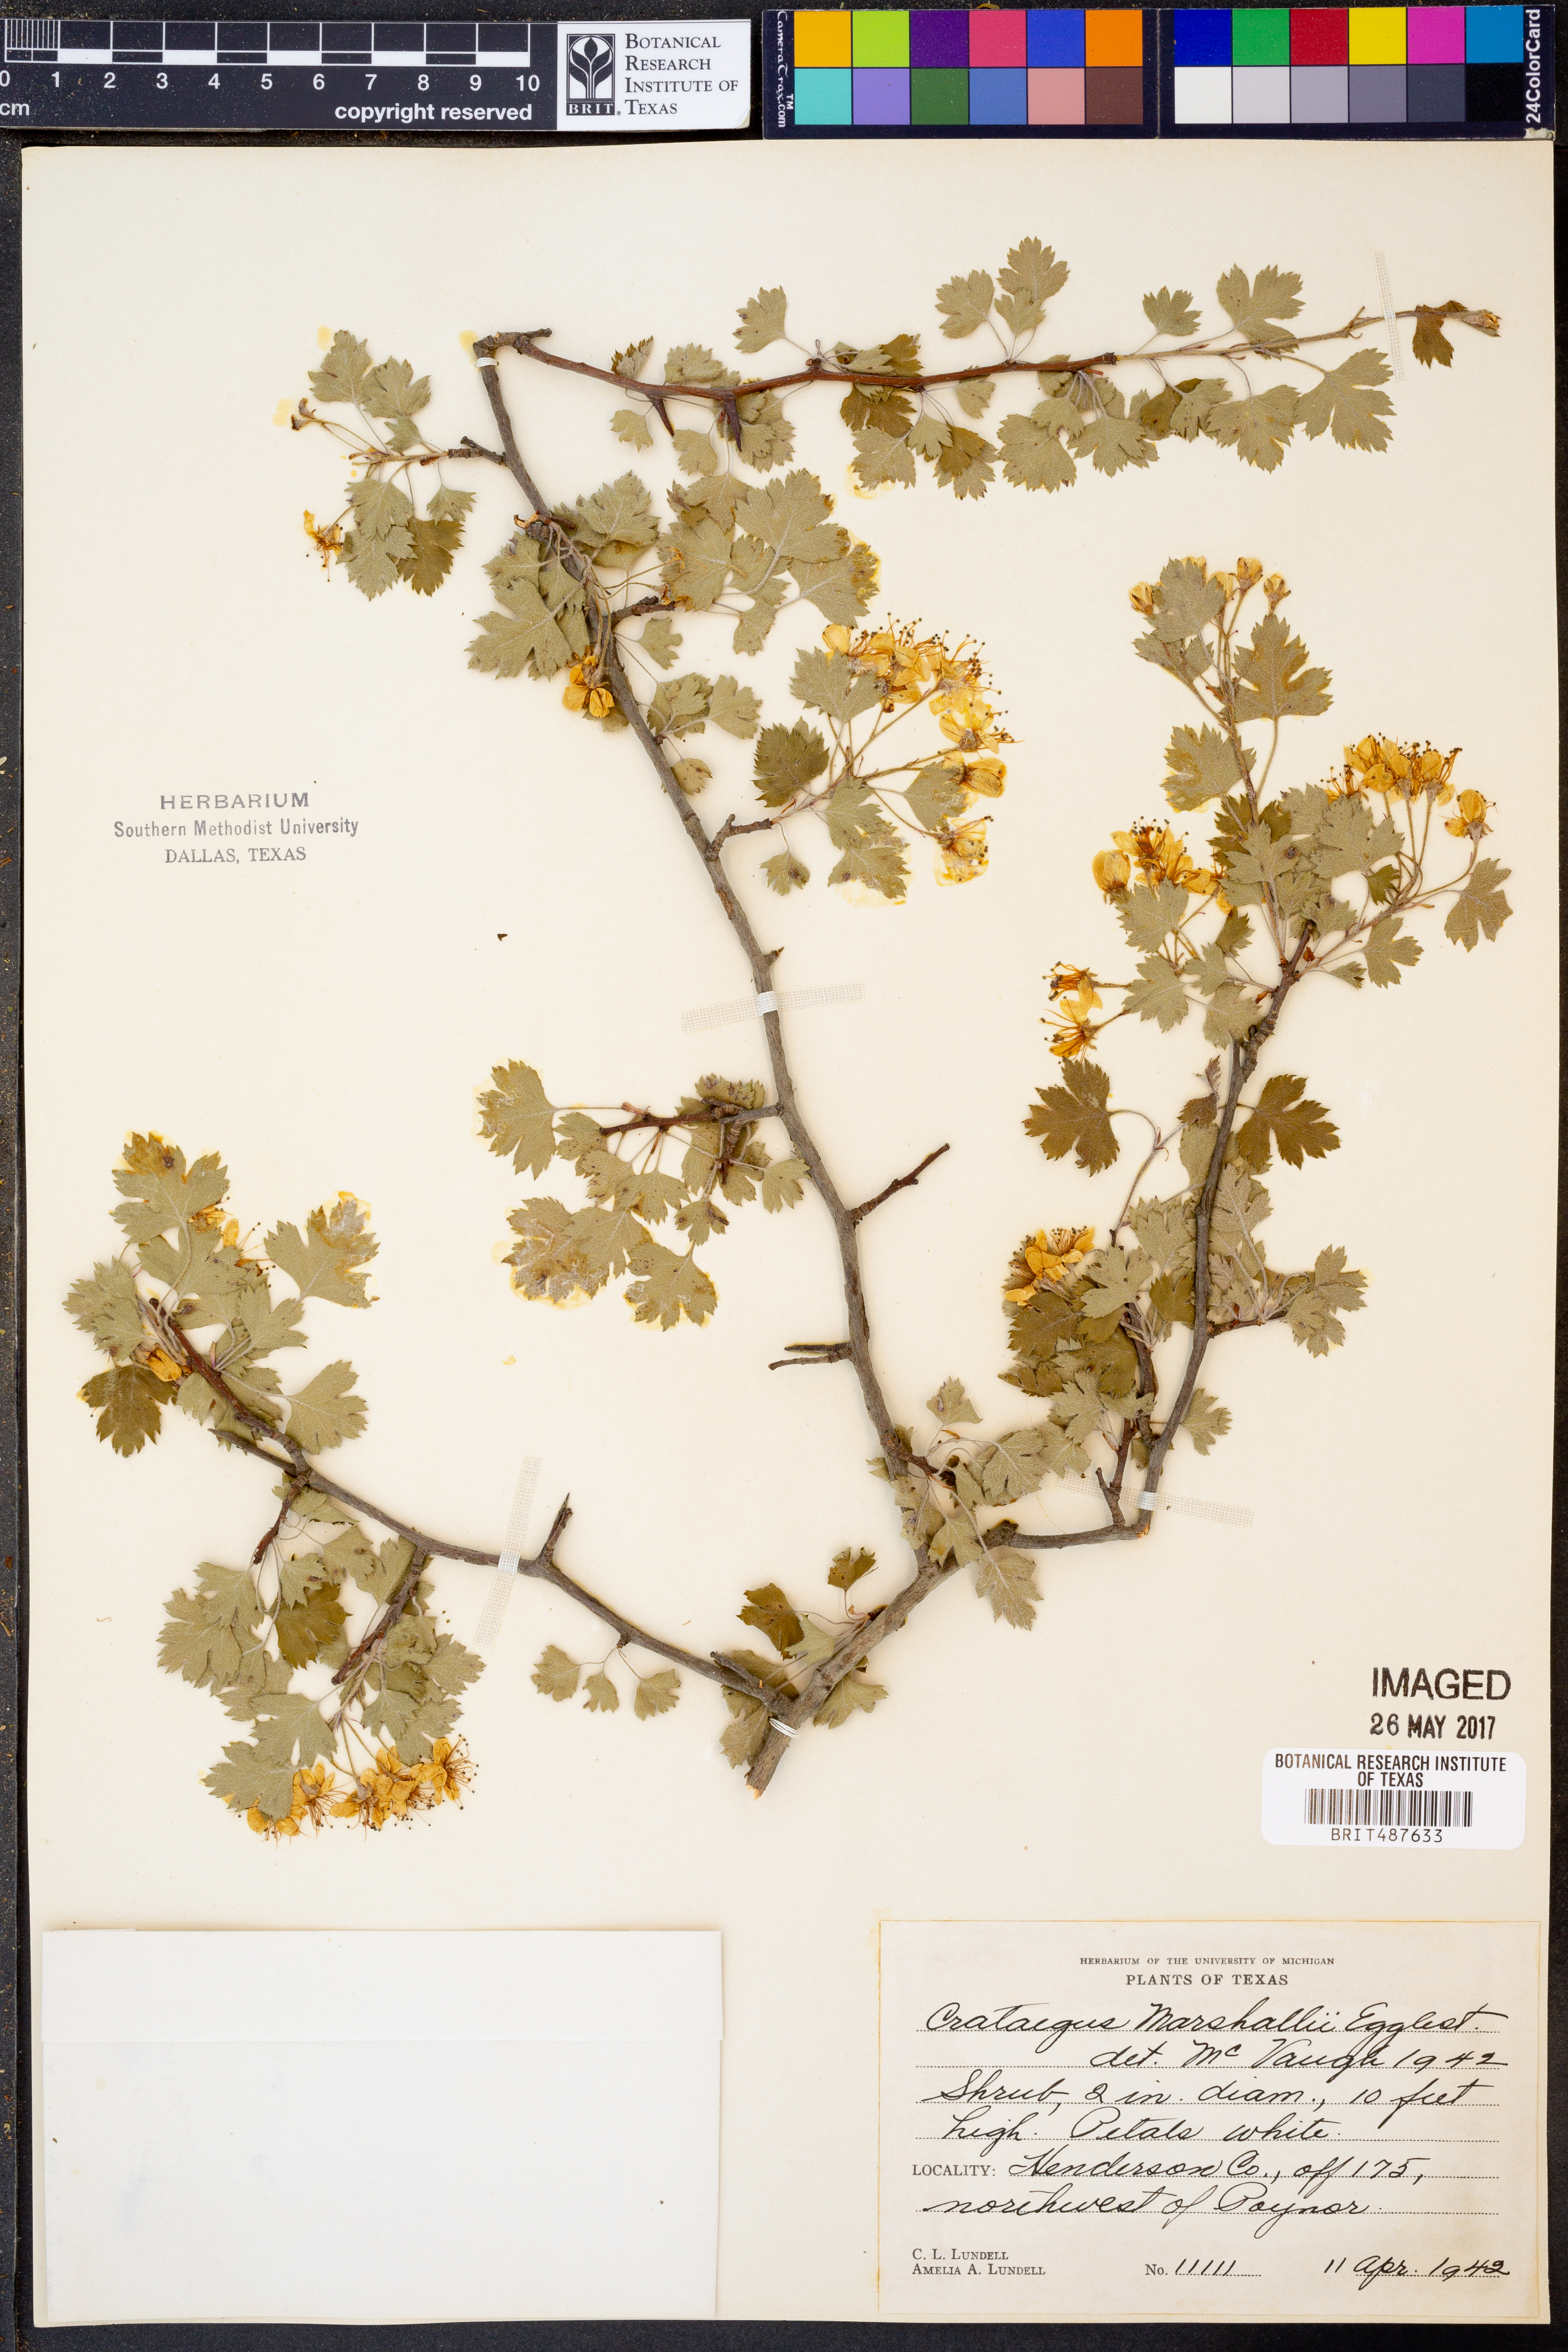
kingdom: Plantae
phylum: Tracheophyta
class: Magnoliopsida
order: Rosales
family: Rosaceae
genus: Crataegus
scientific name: Crataegus marshallii
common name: Parsley-hawthorn
